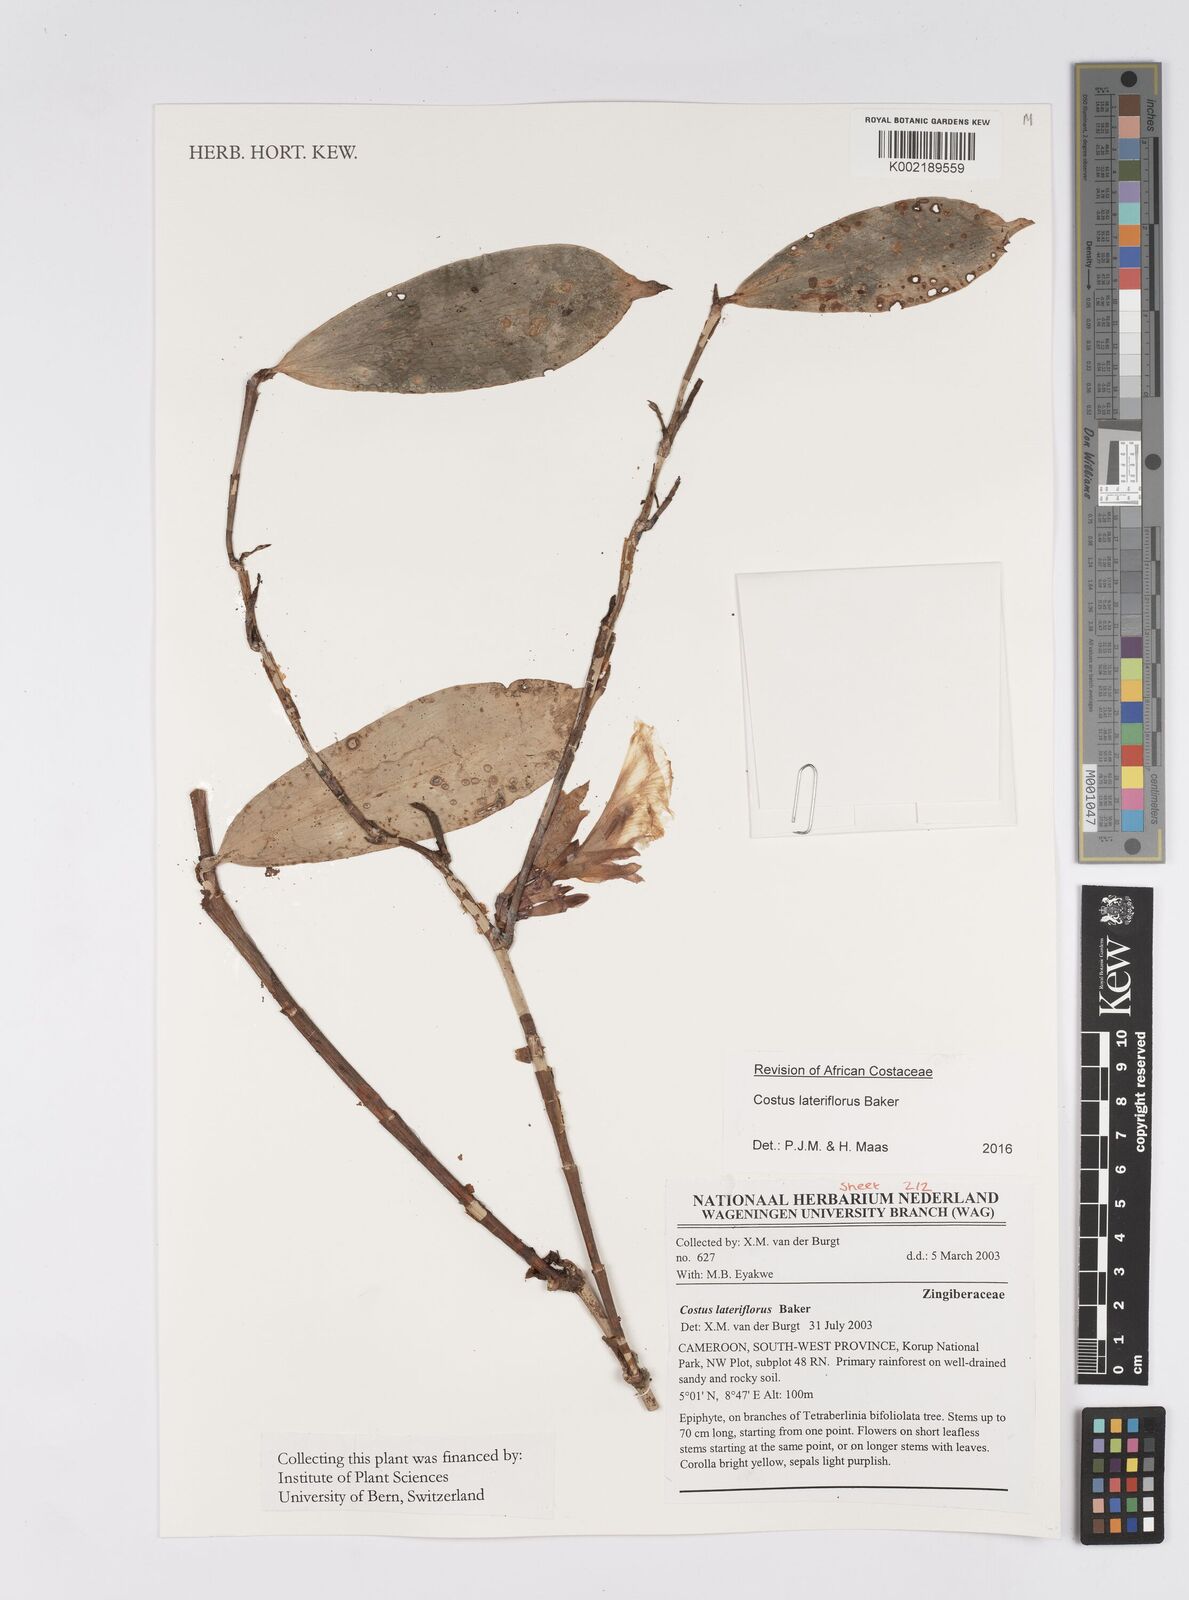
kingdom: Plantae
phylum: Tracheophyta
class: Liliopsida
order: Zingiberales
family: Costaceae
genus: Costus
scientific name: Costus lateriflorus
